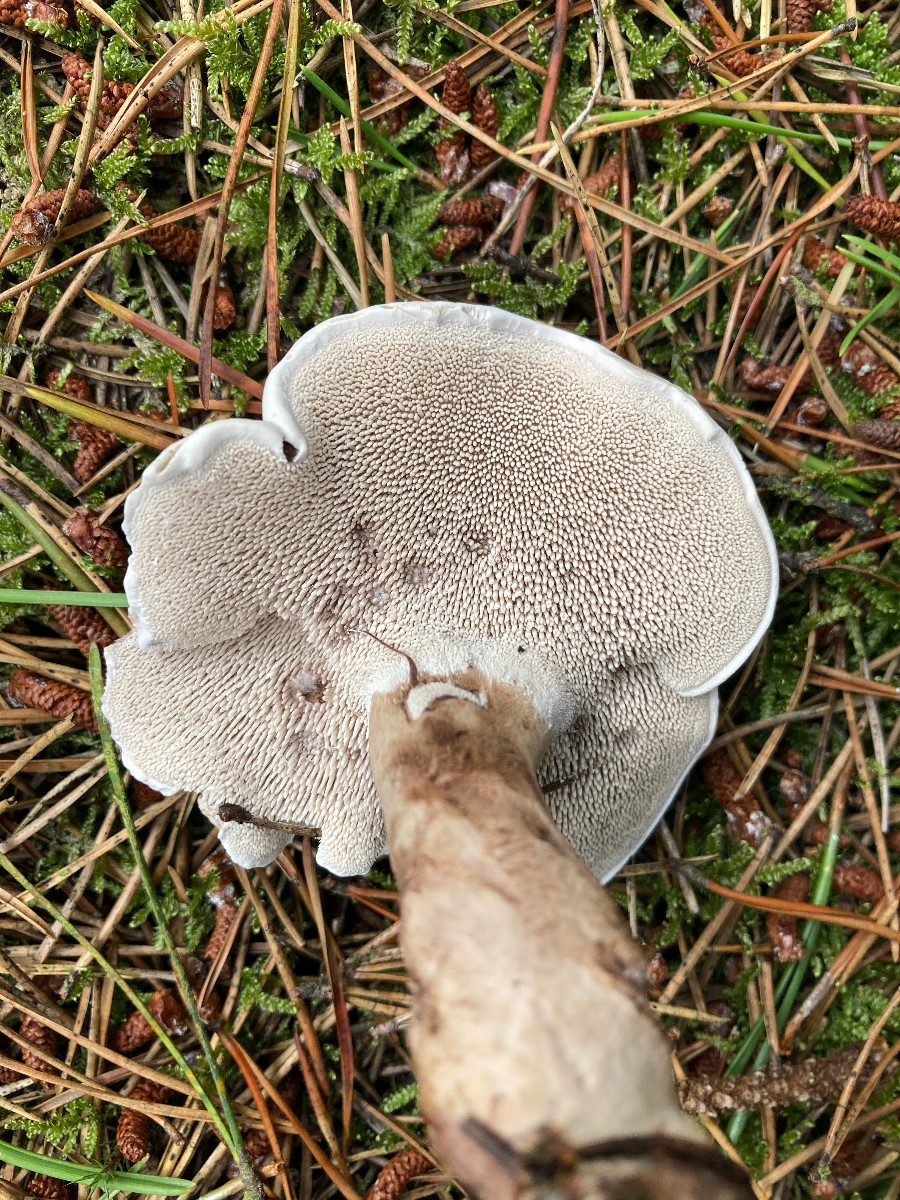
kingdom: Fungi
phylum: Basidiomycota
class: Agaricomycetes
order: Thelephorales
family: Thelephoraceae
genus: Phellodon
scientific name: Phellodon
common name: duftpigsvamp
